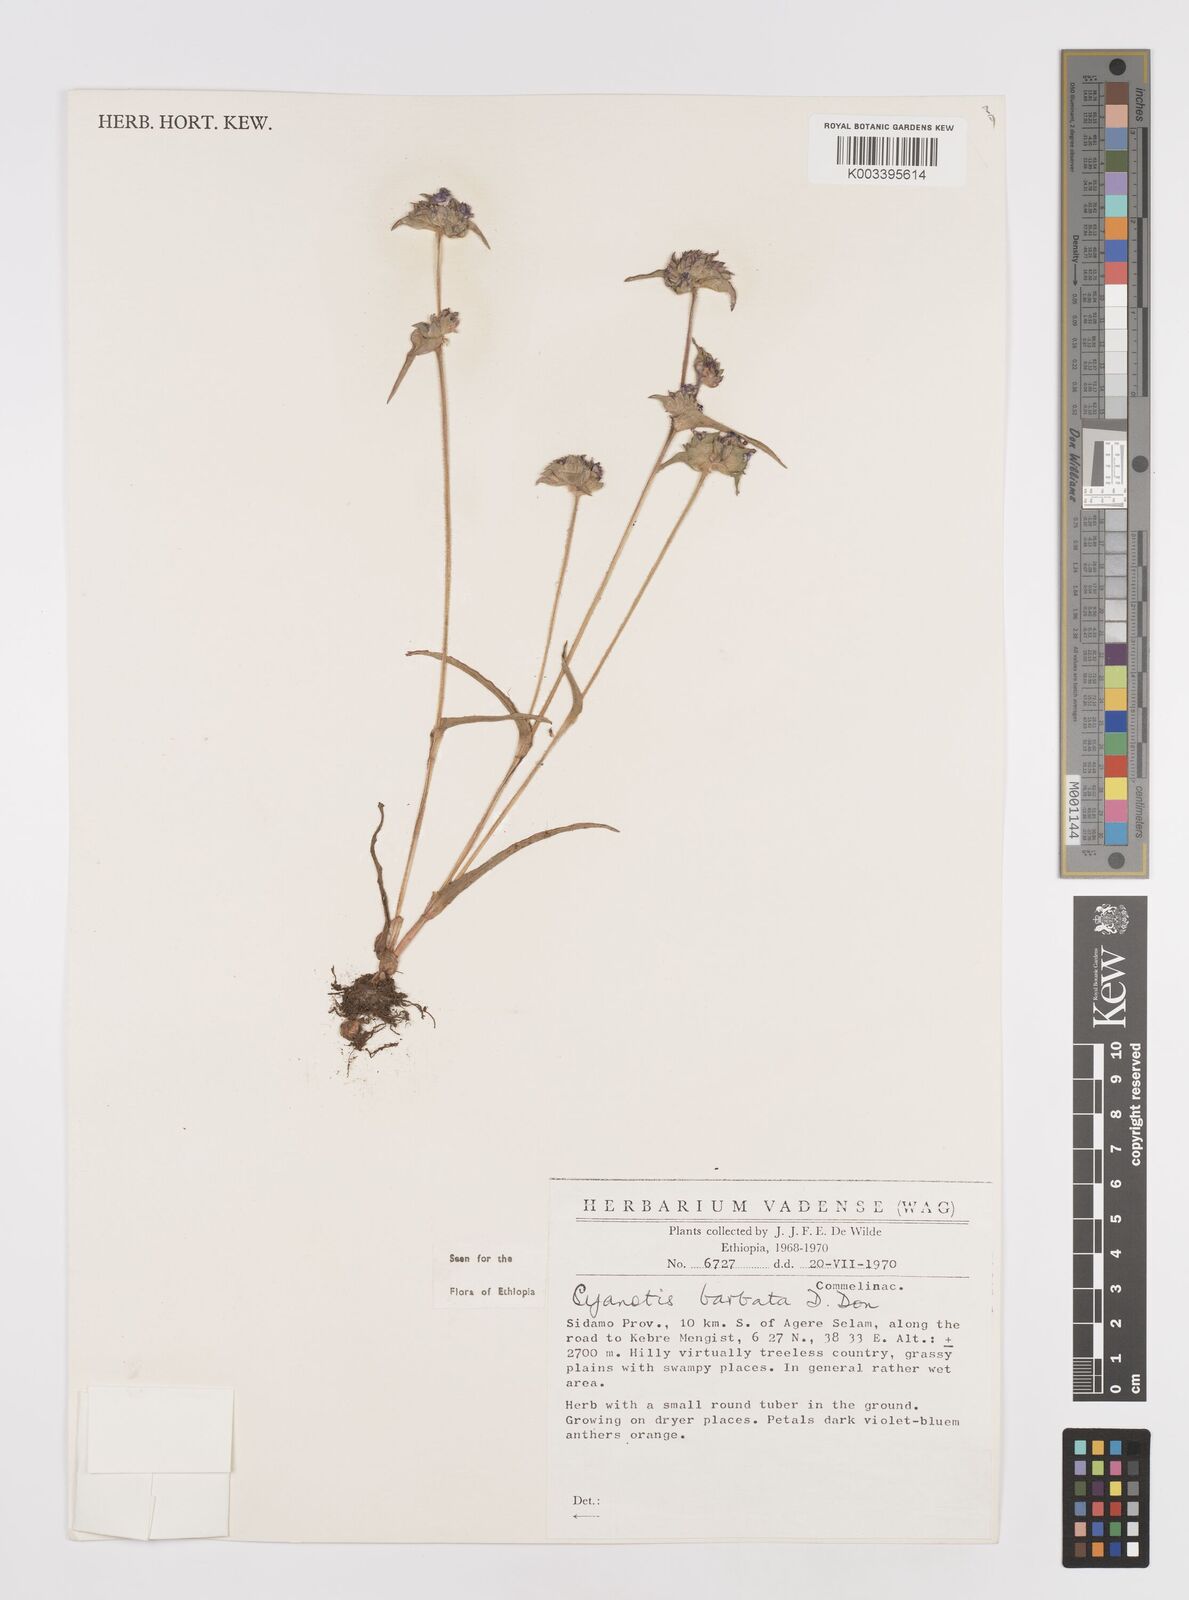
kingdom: Plantae
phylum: Tracheophyta
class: Liliopsida
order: Commelinales
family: Commelinaceae
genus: Cyanotis
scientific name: Cyanotis vaga
